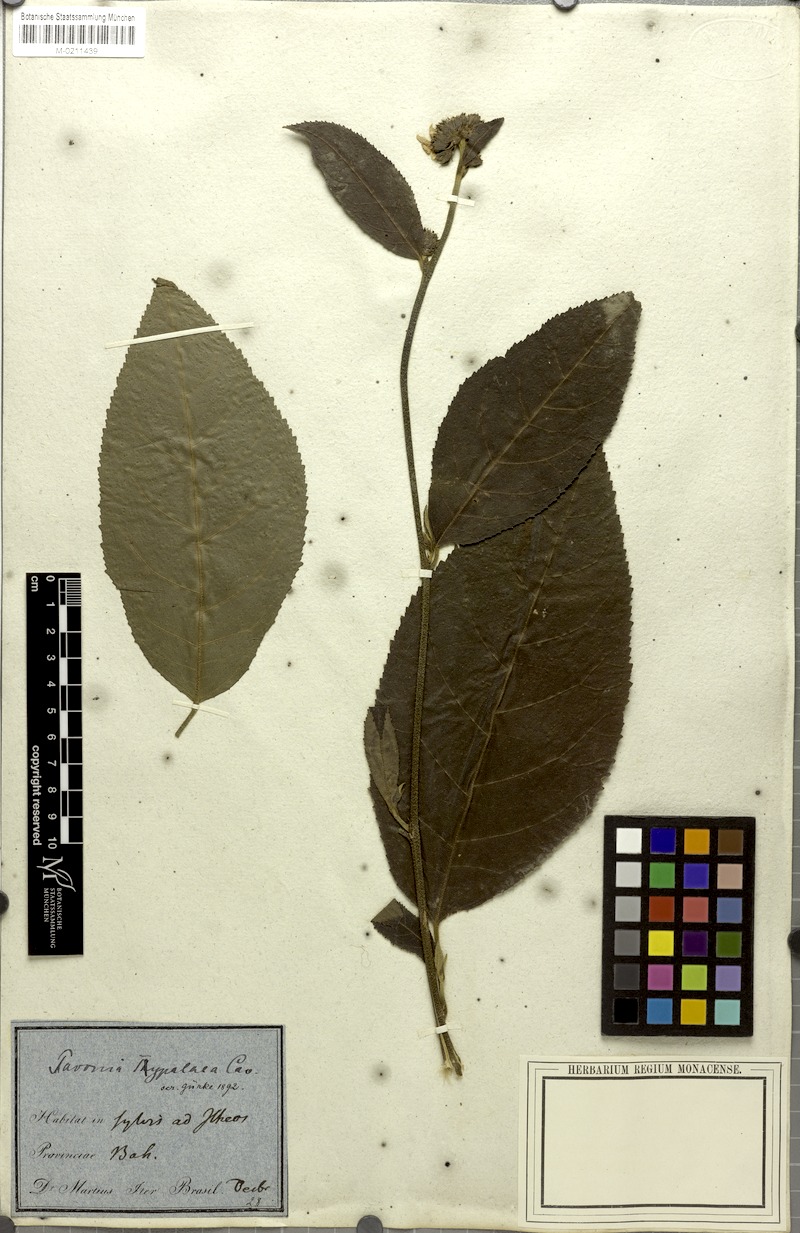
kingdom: Plantae
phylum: Tracheophyta
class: Magnoliopsida
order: Malvales
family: Malvaceae
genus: Pavonia
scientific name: Pavonia fruticosa
